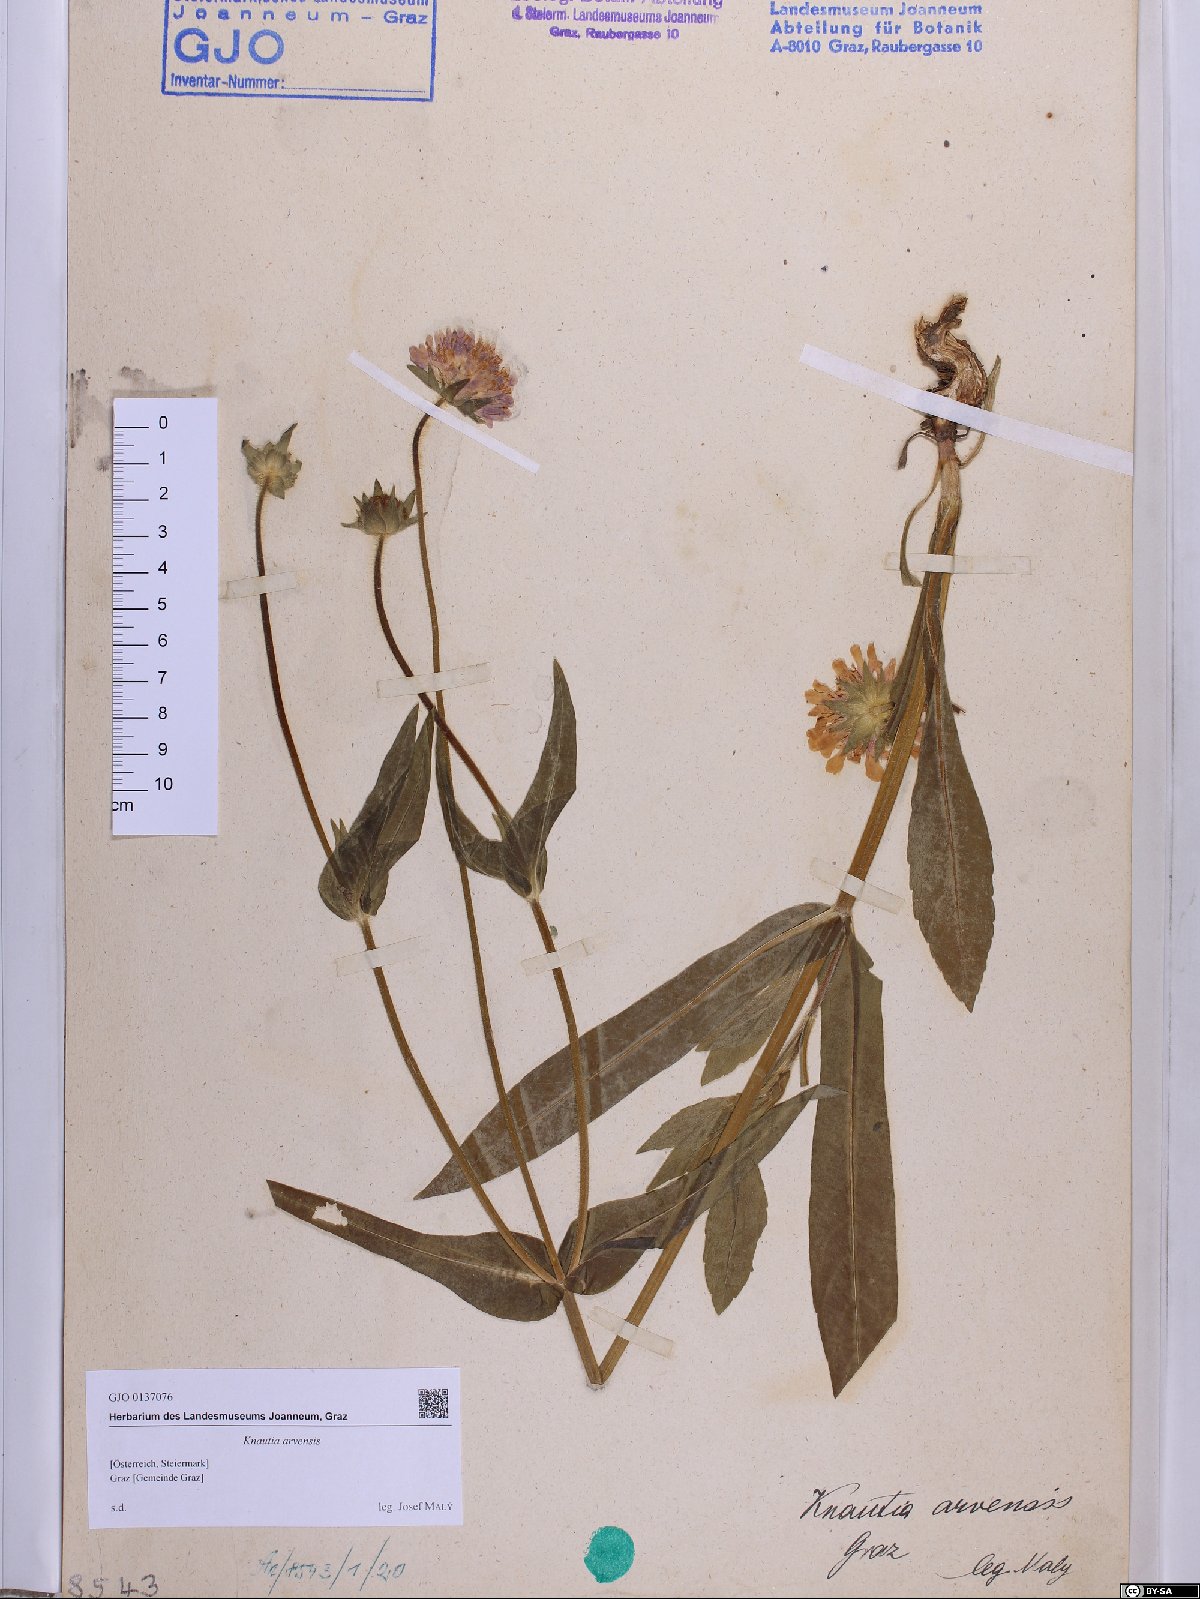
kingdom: Plantae
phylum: Tracheophyta
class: Magnoliopsida
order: Dipsacales
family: Caprifoliaceae
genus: Knautia
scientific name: Knautia arvensis
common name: Field scabiosa
